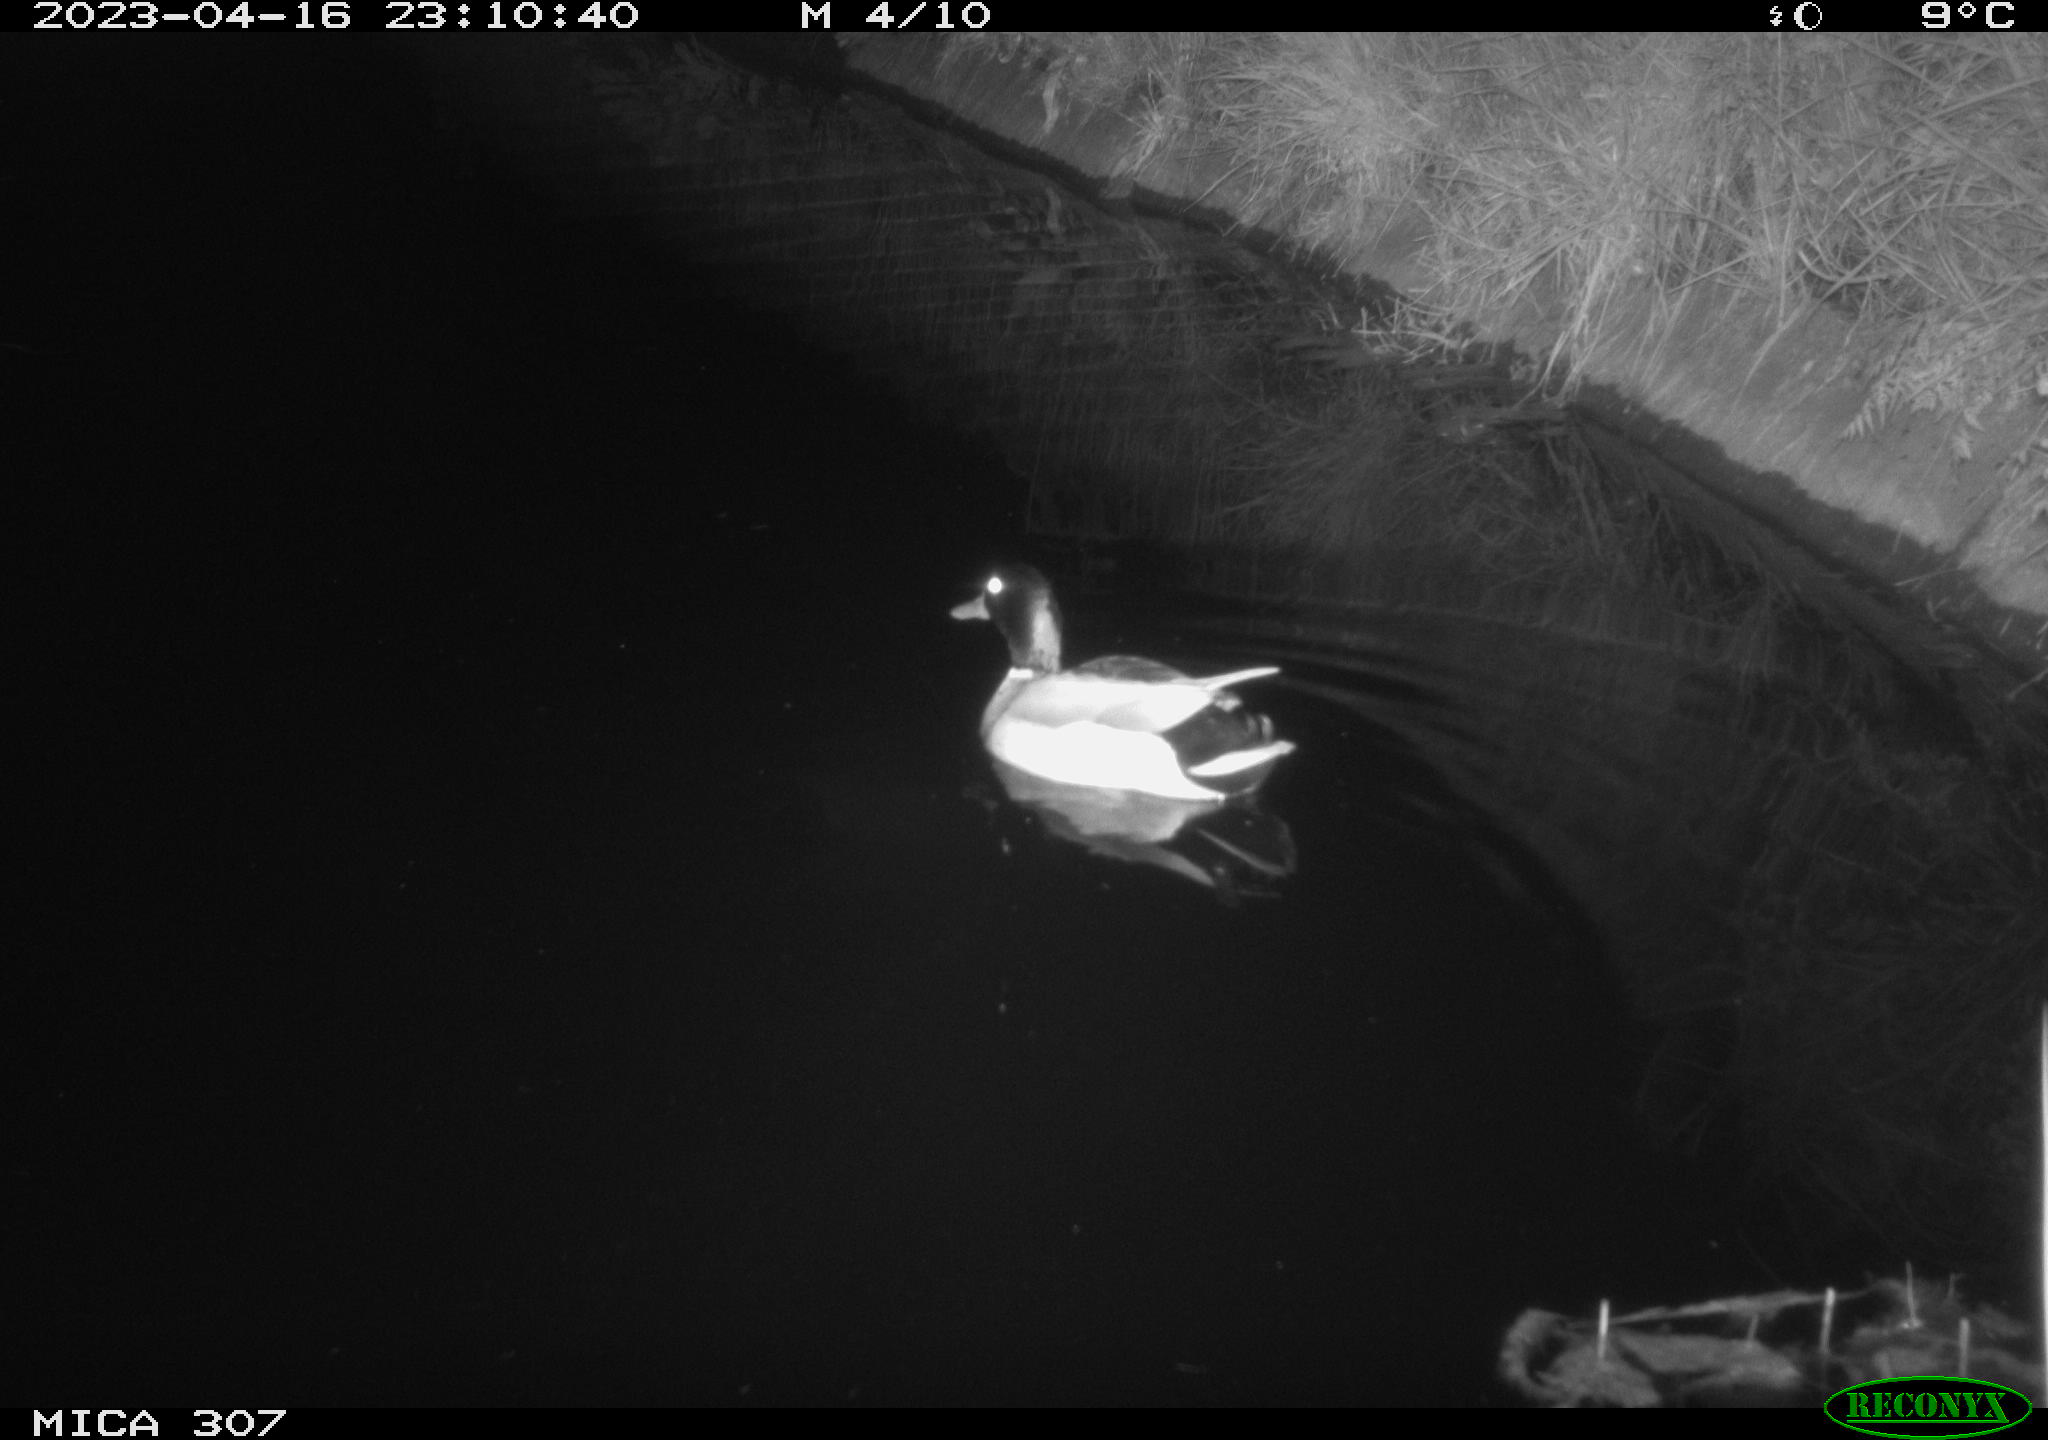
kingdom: Animalia
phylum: Chordata
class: Aves
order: Anseriformes
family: Anatidae
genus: Anas
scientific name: Anas
